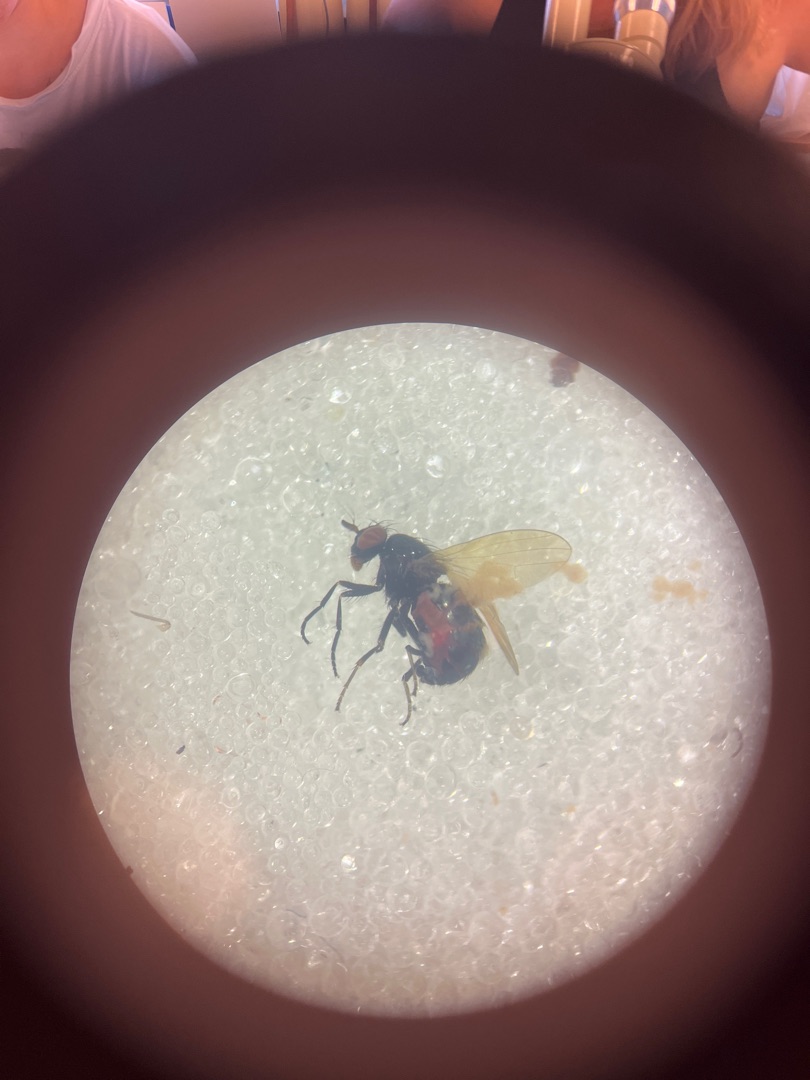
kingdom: Animalia
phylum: Arthropoda
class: Insecta
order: Diptera
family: Lauxaniidae
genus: Calliopum
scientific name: Calliopum
